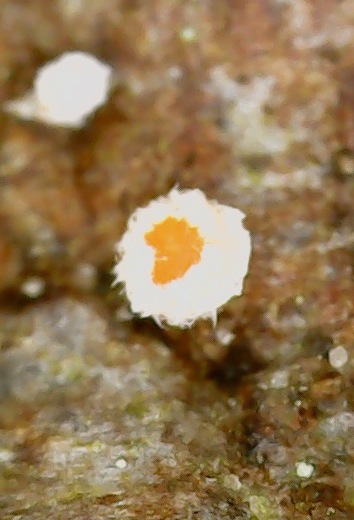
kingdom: Fungi
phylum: Ascomycota
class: Leotiomycetes
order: Helotiales
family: Lachnaceae
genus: Lachnellula
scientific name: Lachnellula occidentalis
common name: Larch disco
